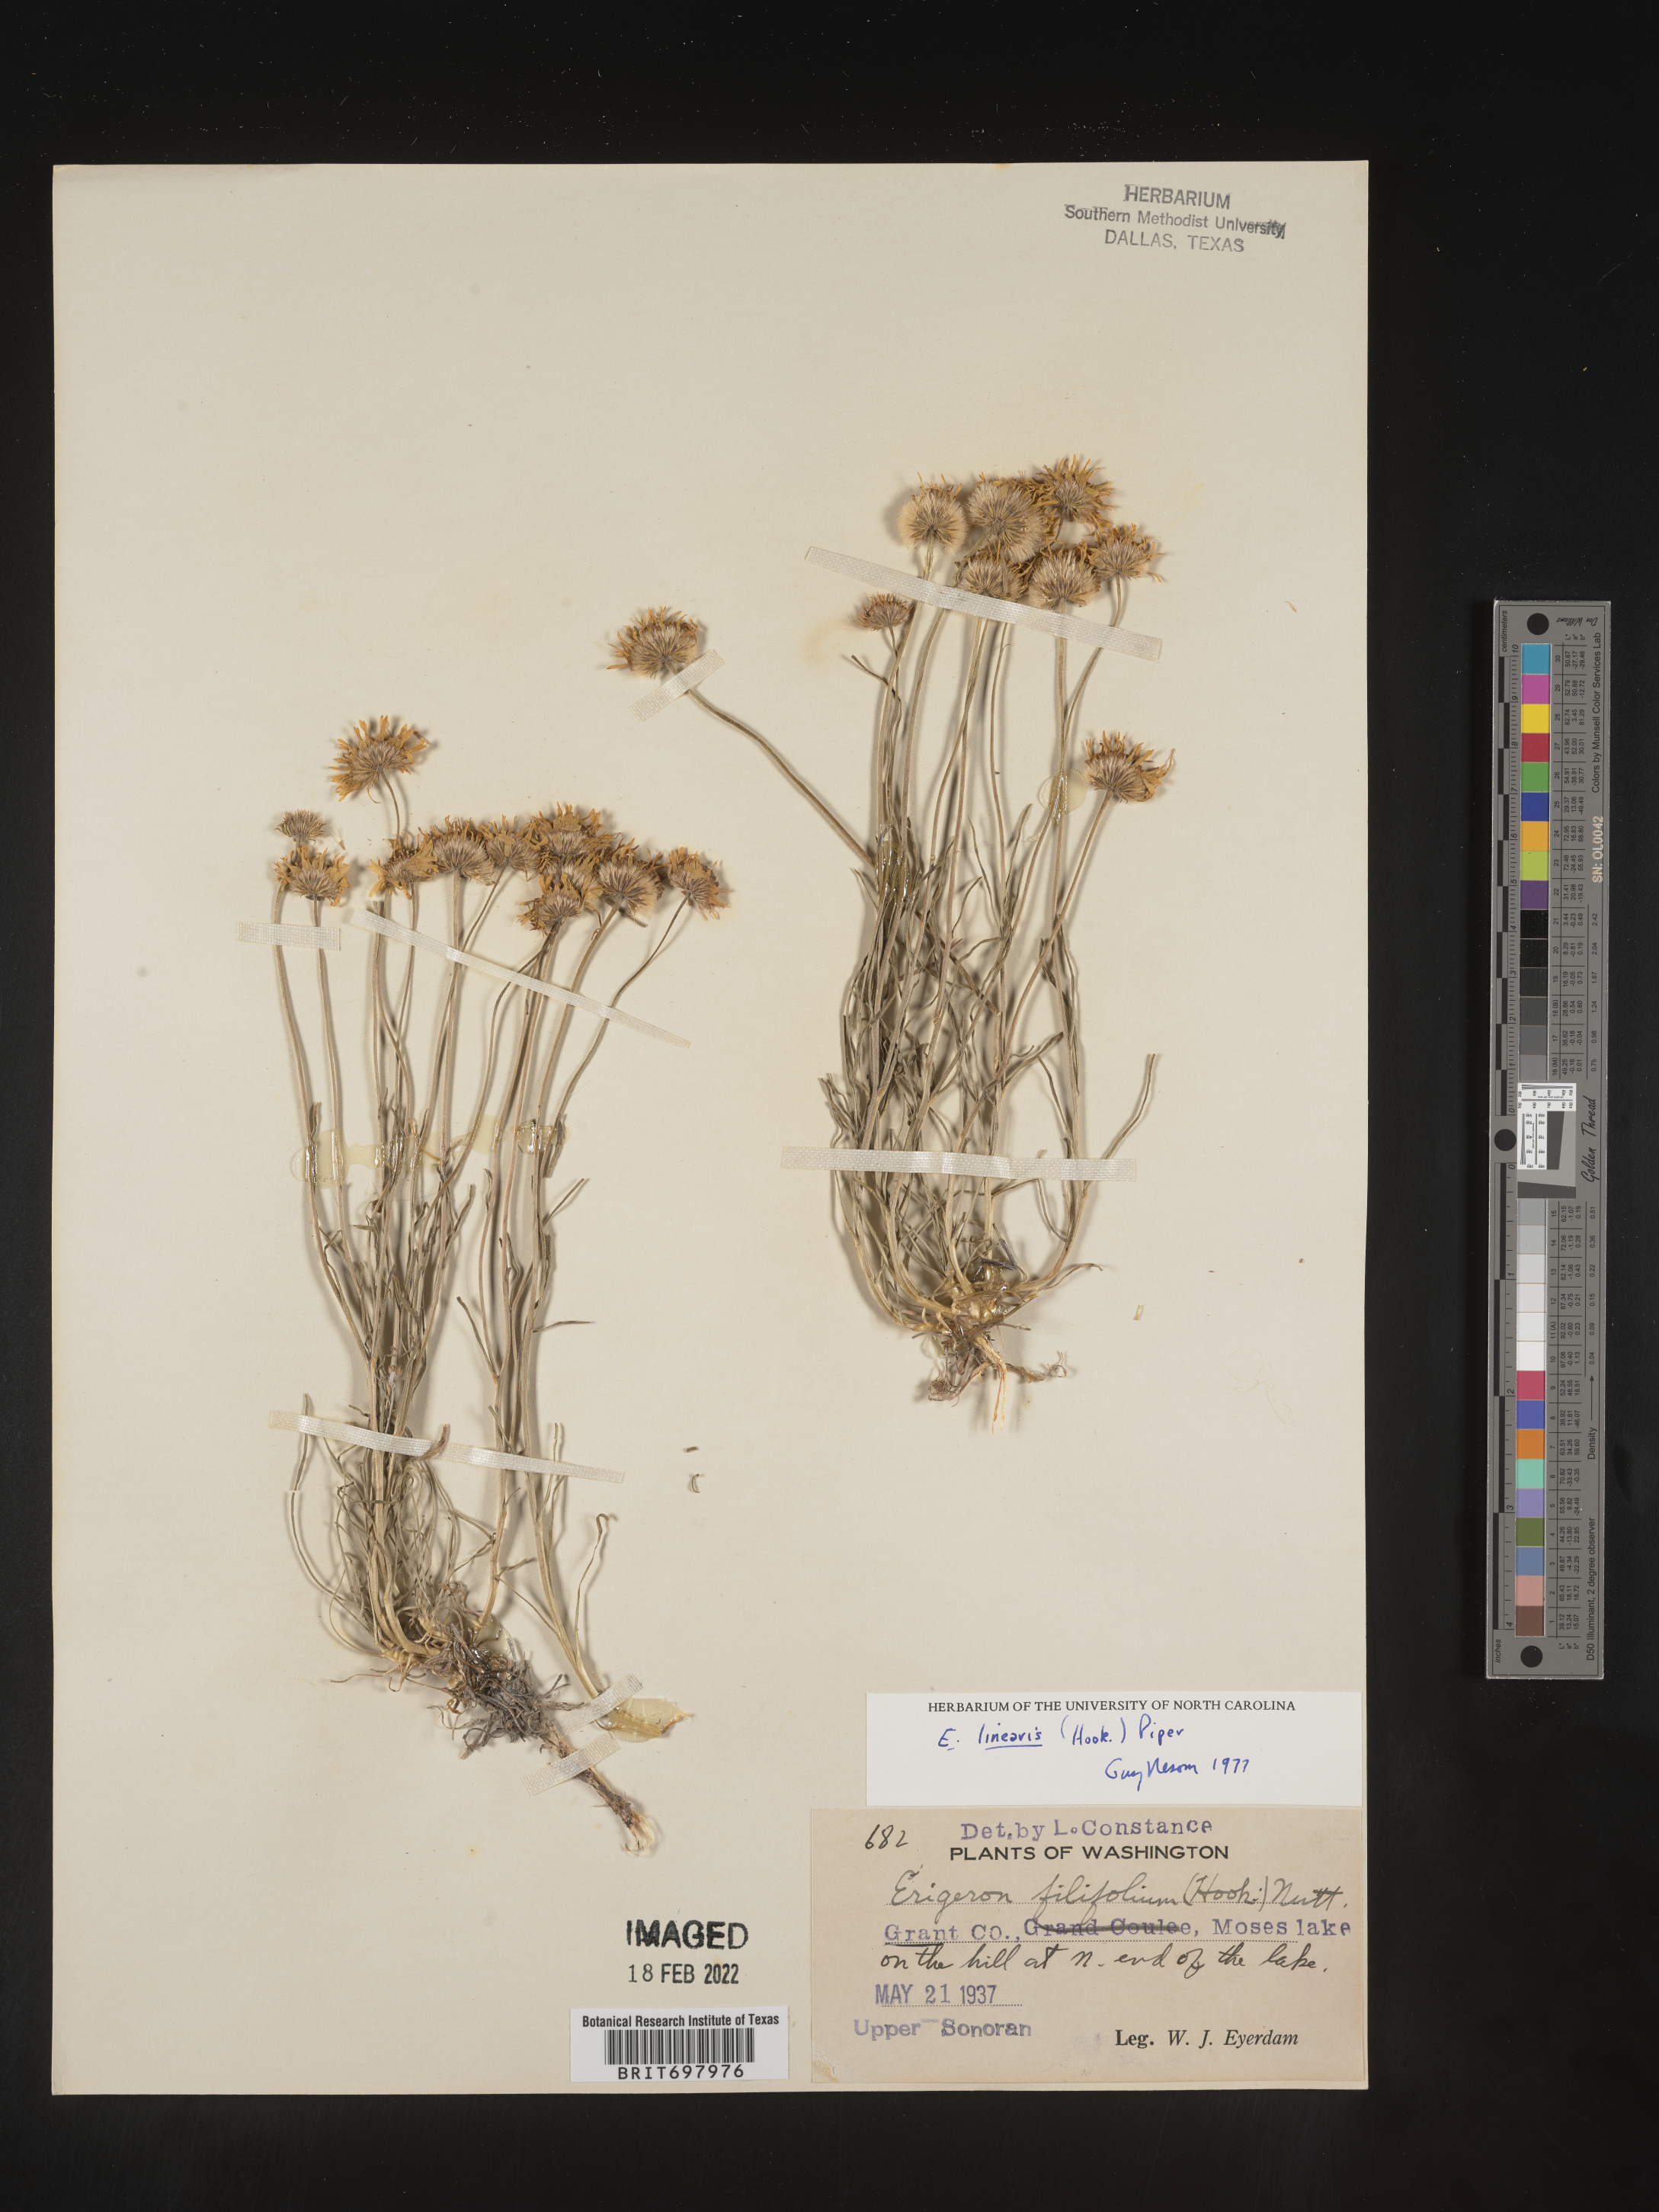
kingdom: Plantae
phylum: Tracheophyta
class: Magnoliopsida
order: Asterales
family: Asteraceae
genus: Erigeron
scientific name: Erigeron linearis
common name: Desert yellow fleabane
